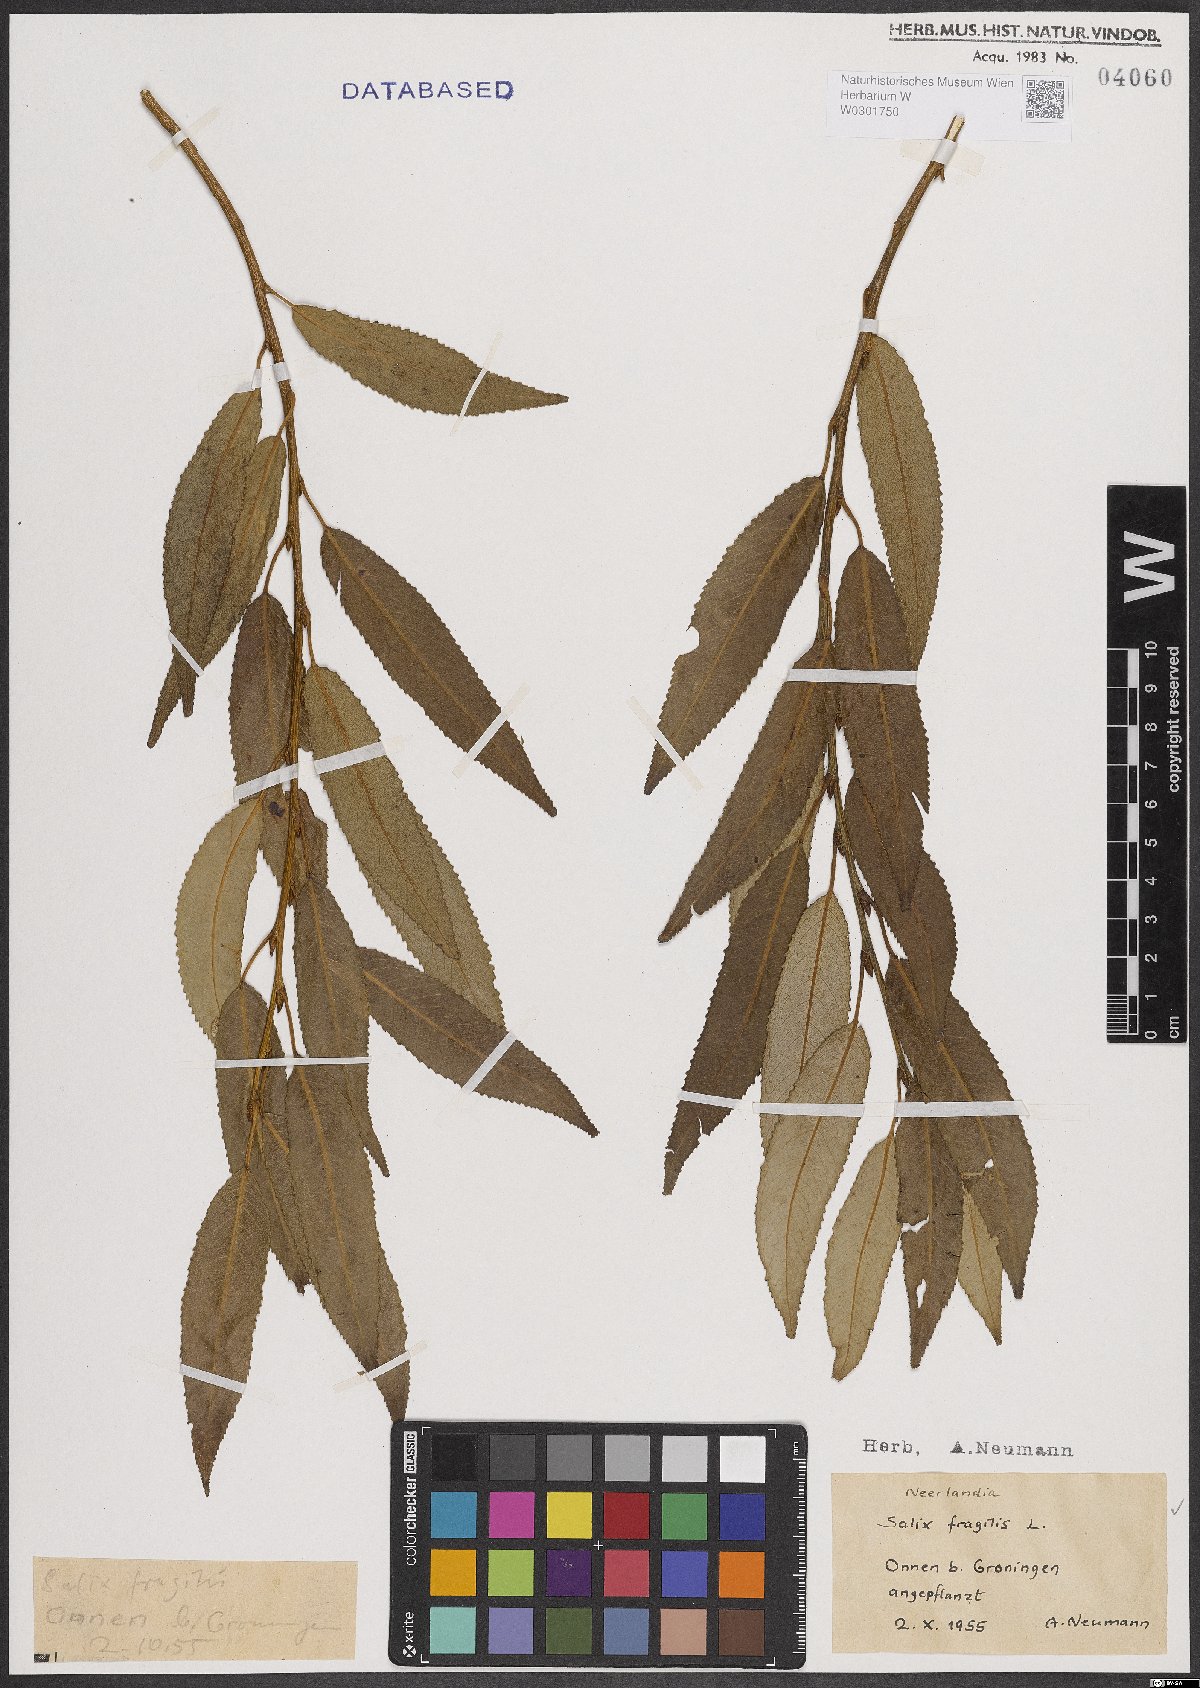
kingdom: Plantae
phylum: Tracheophyta
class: Magnoliopsida
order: Malpighiales
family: Salicaceae
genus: Salix
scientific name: Salix fragilis
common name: Crack willow
